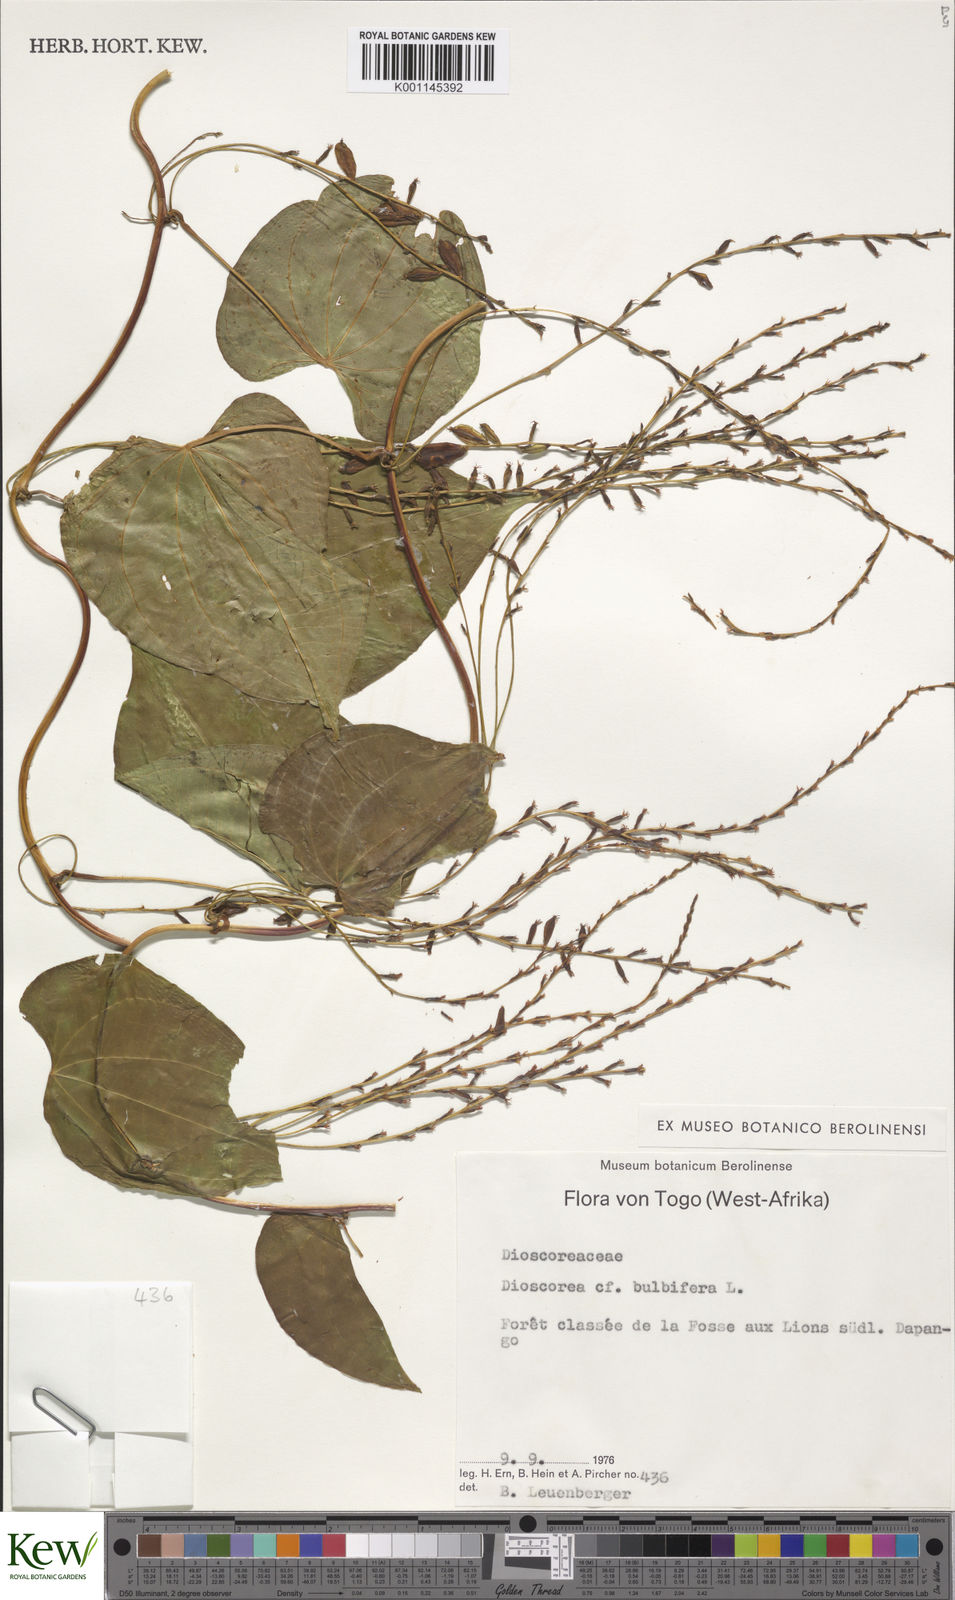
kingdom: Plantae
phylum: Tracheophyta
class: Liliopsida
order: Dioscoreales
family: Dioscoreaceae
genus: Dioscorea
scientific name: Dioscorea bulbifera
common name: Air yam
